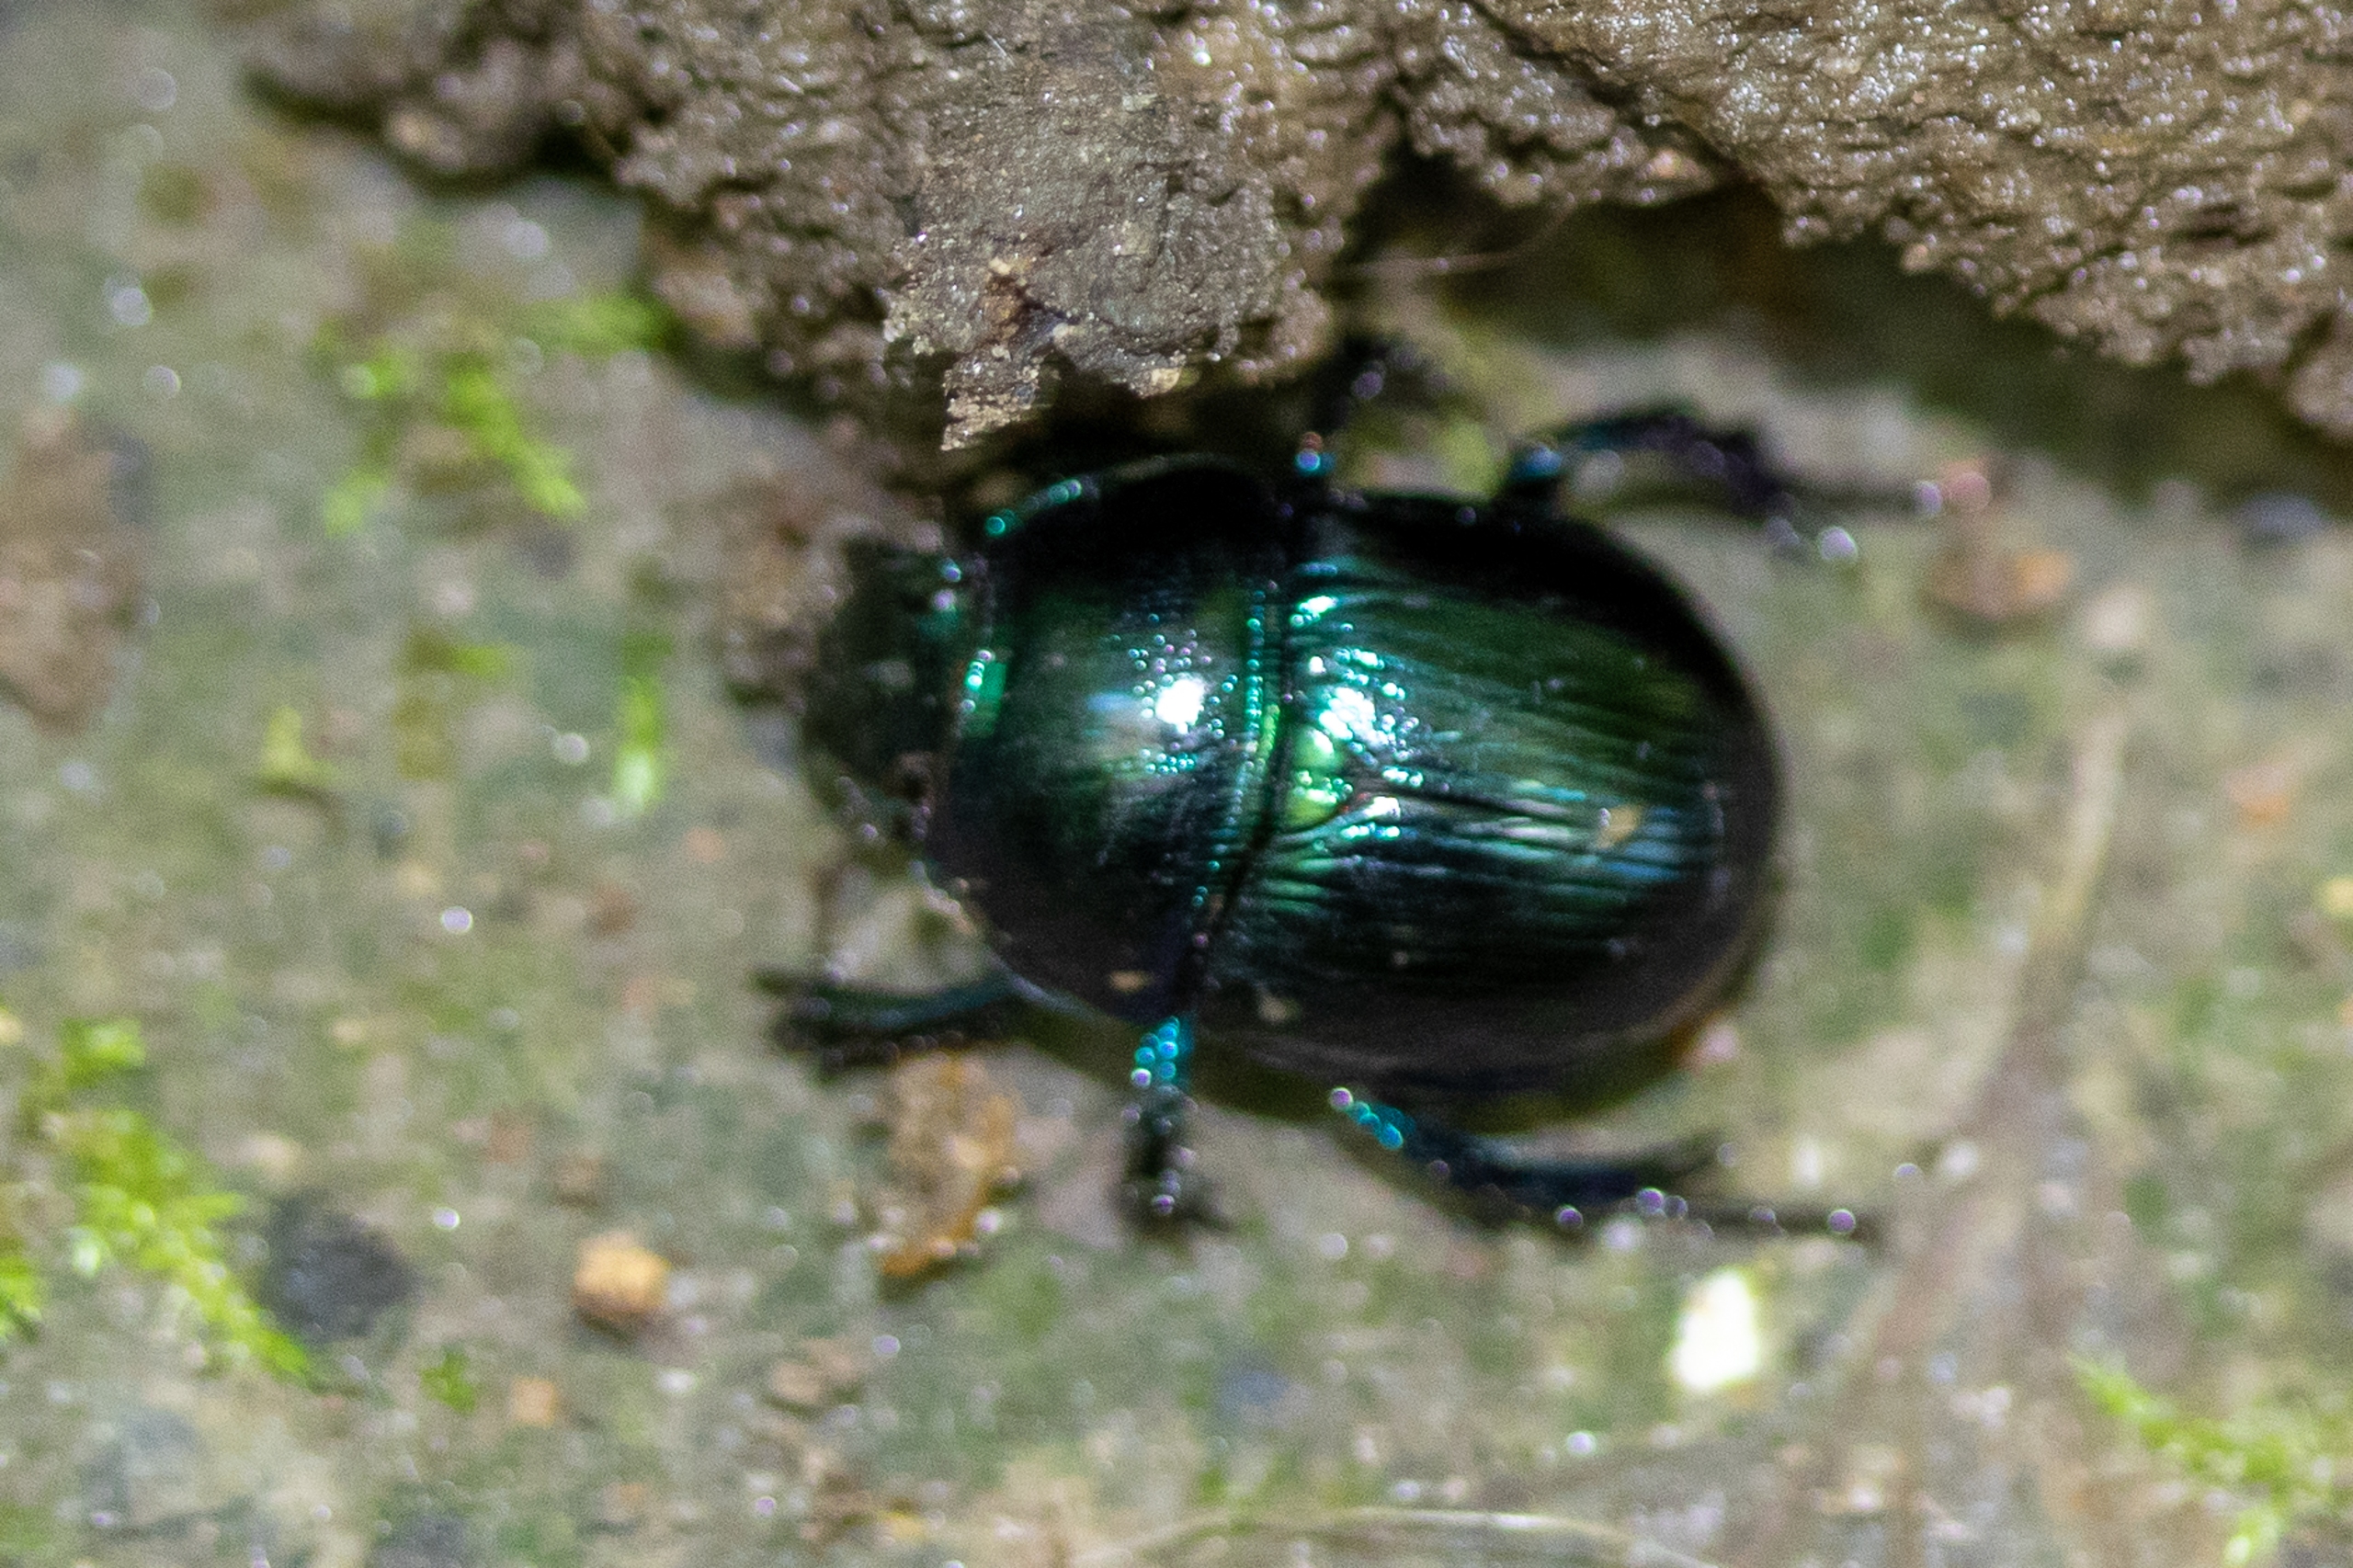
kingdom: Animalia
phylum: Arthropoda
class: Insecta
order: Coleoptera
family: Geotrupidae
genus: Anoplotrupes
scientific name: Anoplotrupes stercorosus
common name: Skovskarnbasse
